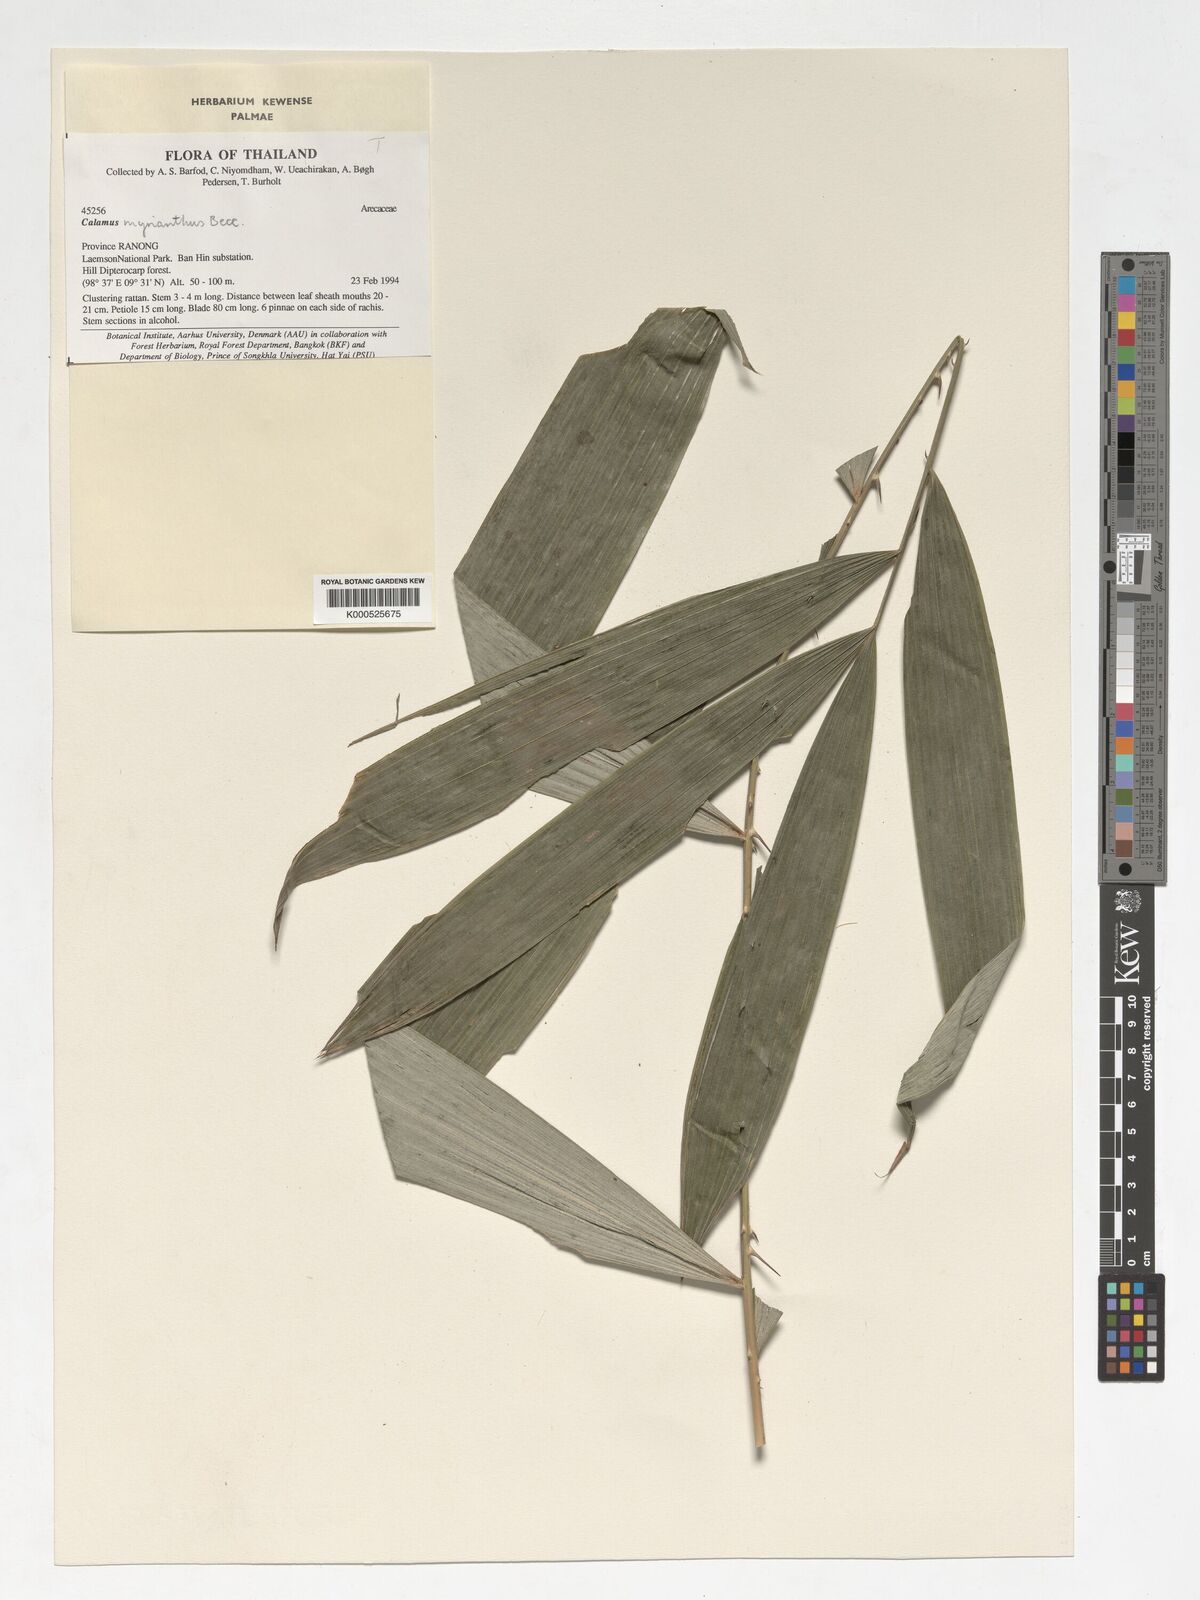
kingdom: Plantae
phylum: Tracheophyta
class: Liliopsida
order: Arecales
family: Arecaceae
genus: Calamus
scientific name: Calamus myrianthus
